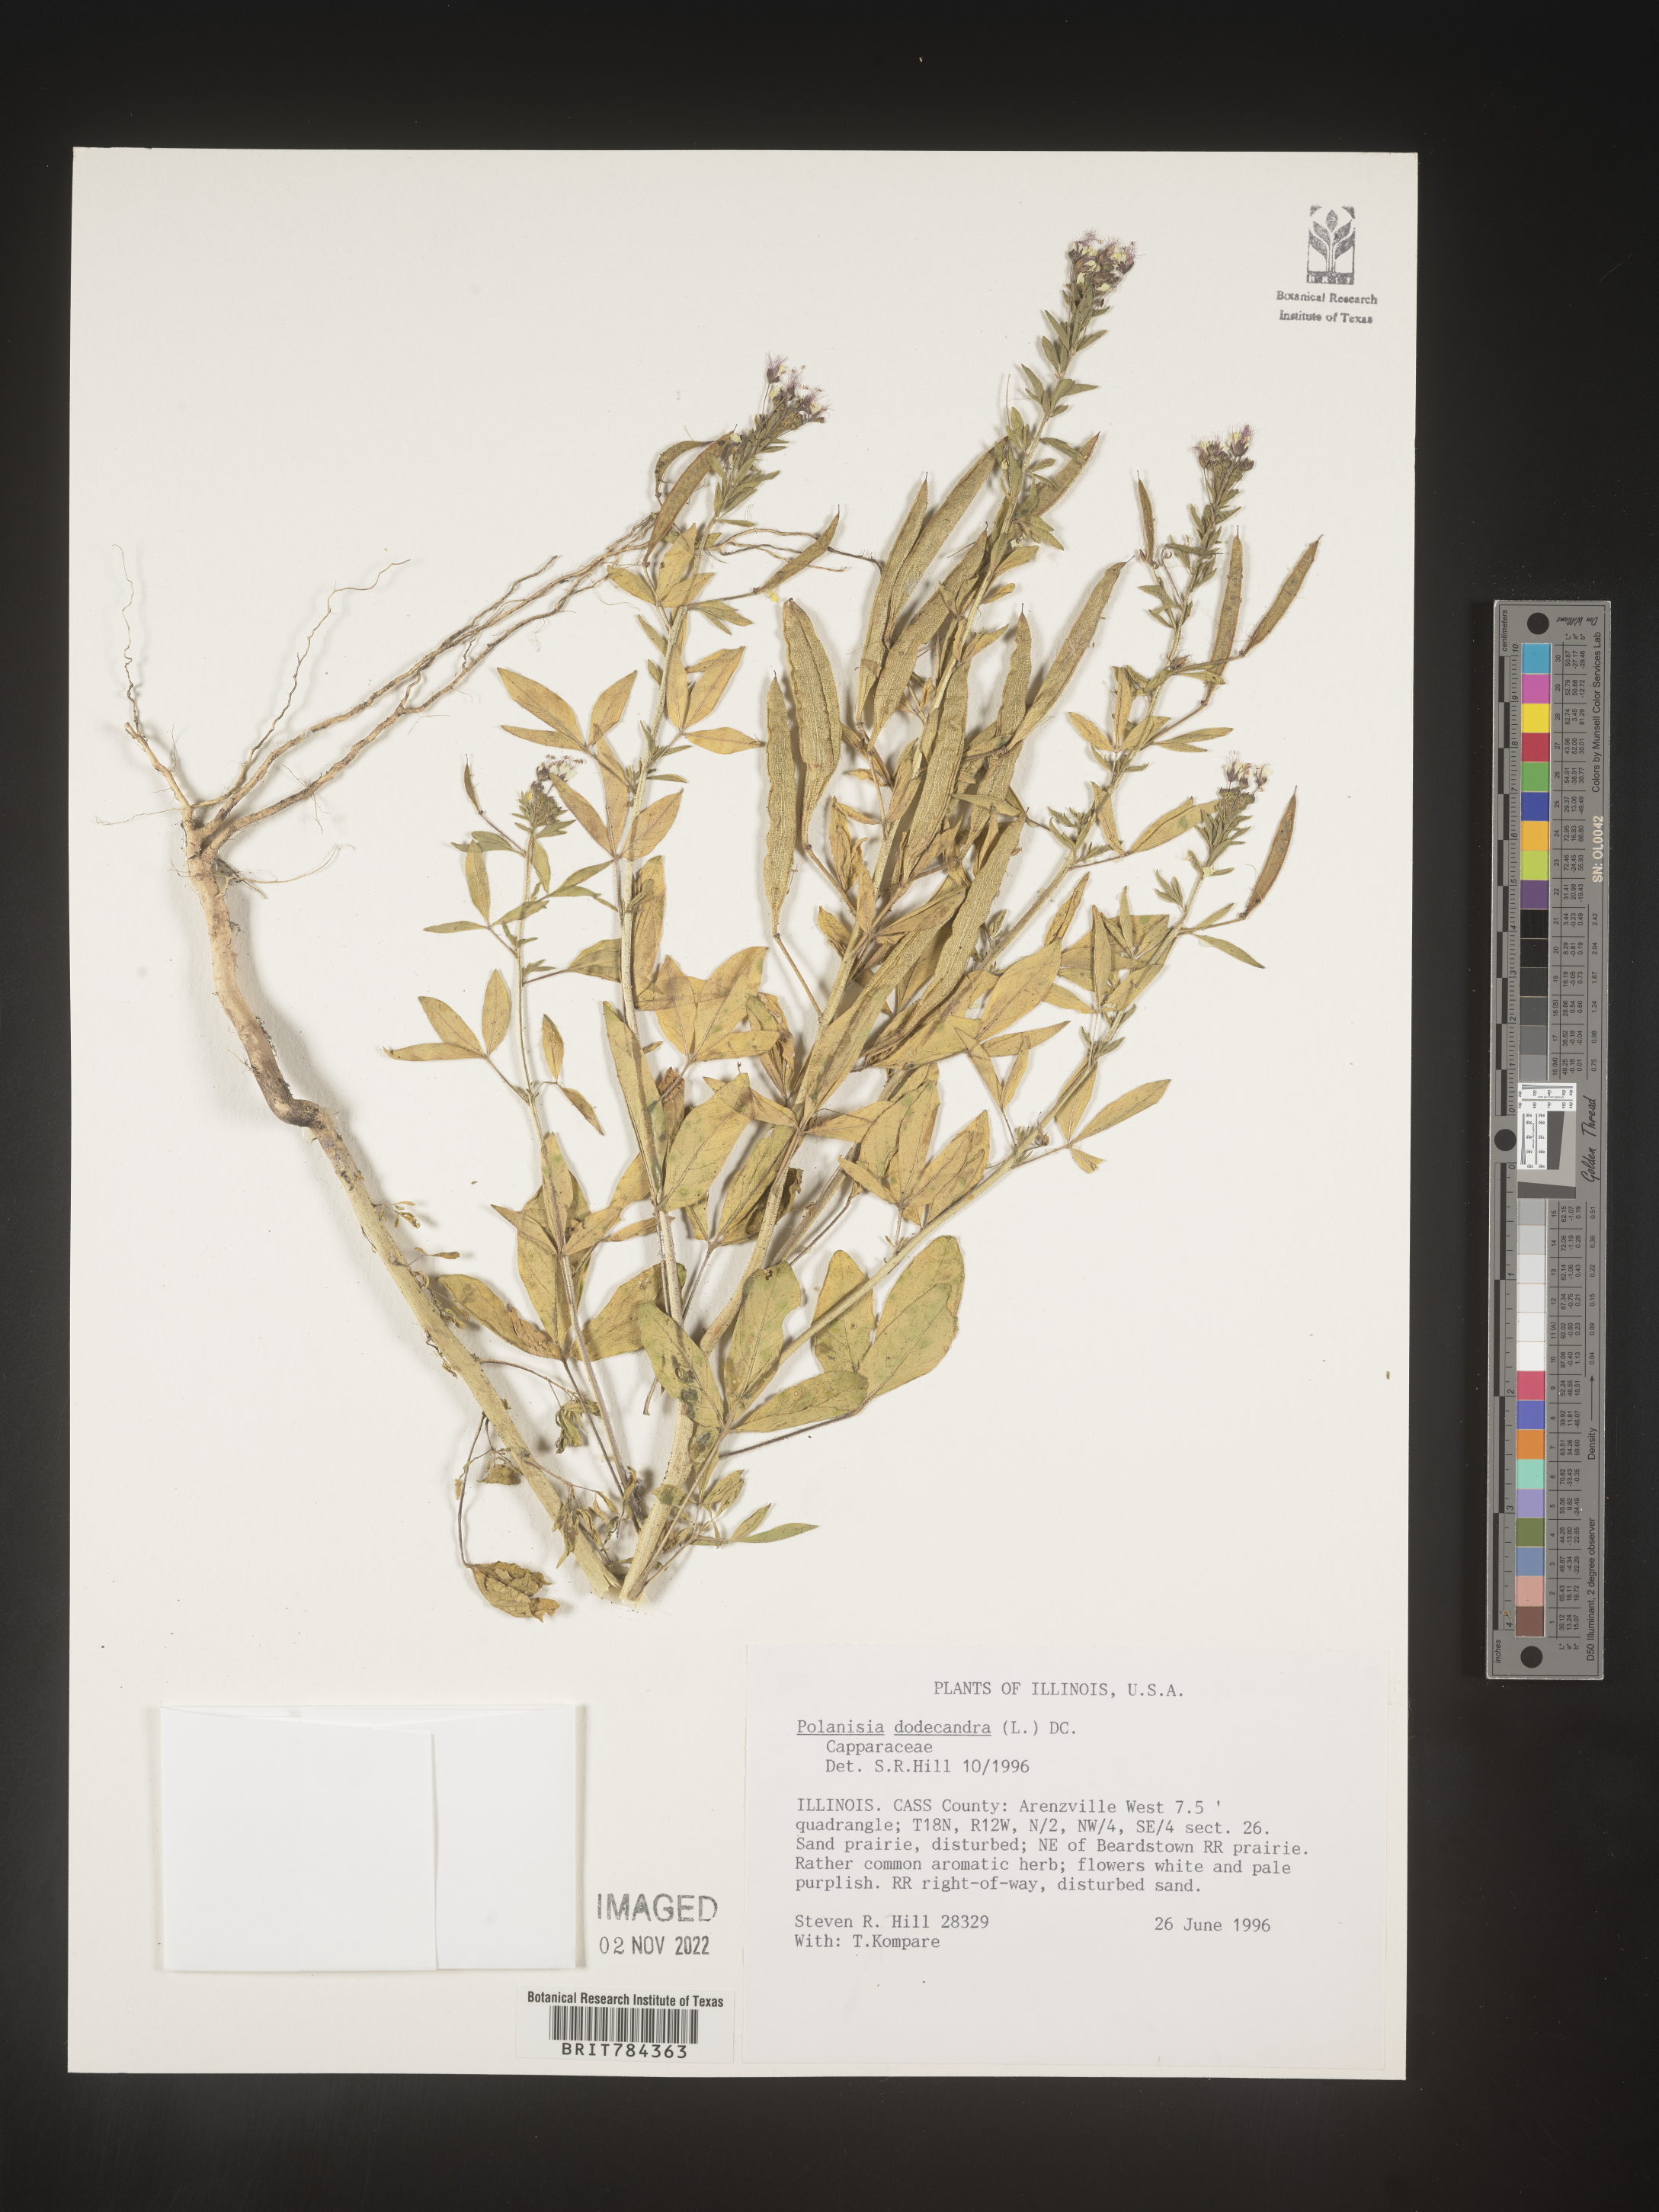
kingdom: Plantae
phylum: Tracheophyta
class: Magnoliopsida
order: Brassicales
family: Cleomaceae
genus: Polanisia
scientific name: Polanisia dodecandra
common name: Clammyweed
